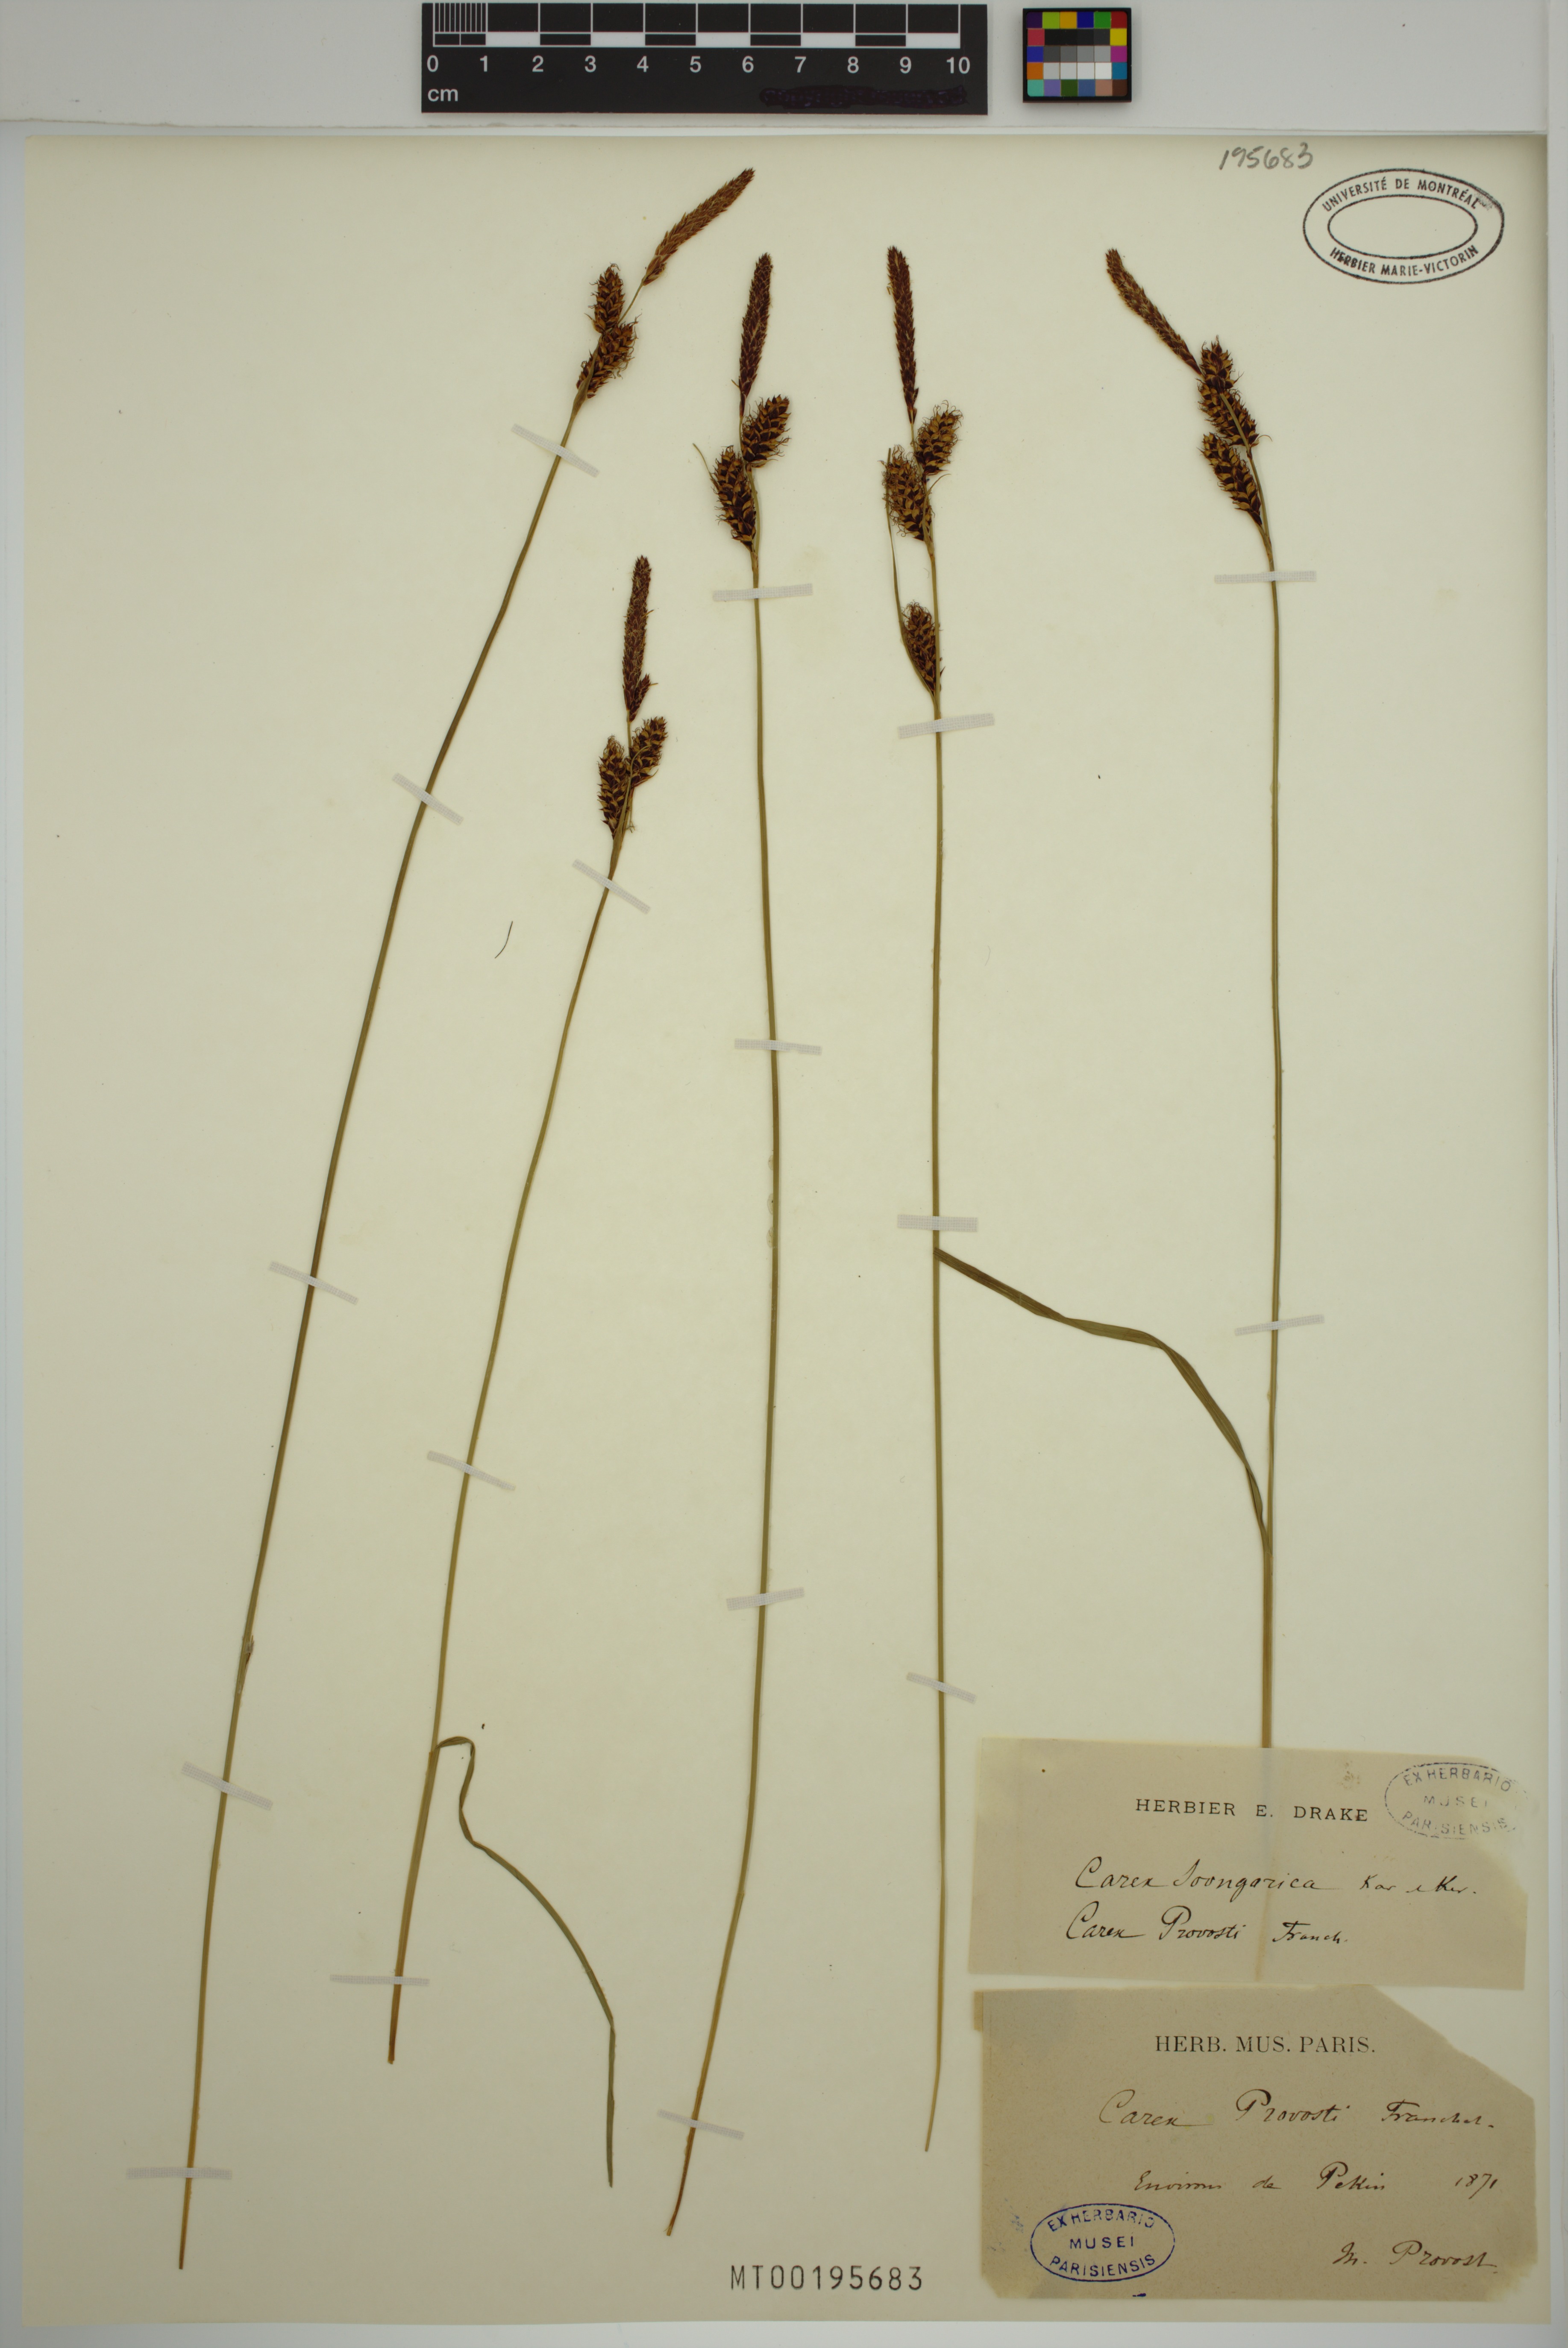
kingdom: Plantae
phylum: Tracheophyta
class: Liliopsida
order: Poales
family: Cyperaceae
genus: Carex
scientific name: Carex songorica
